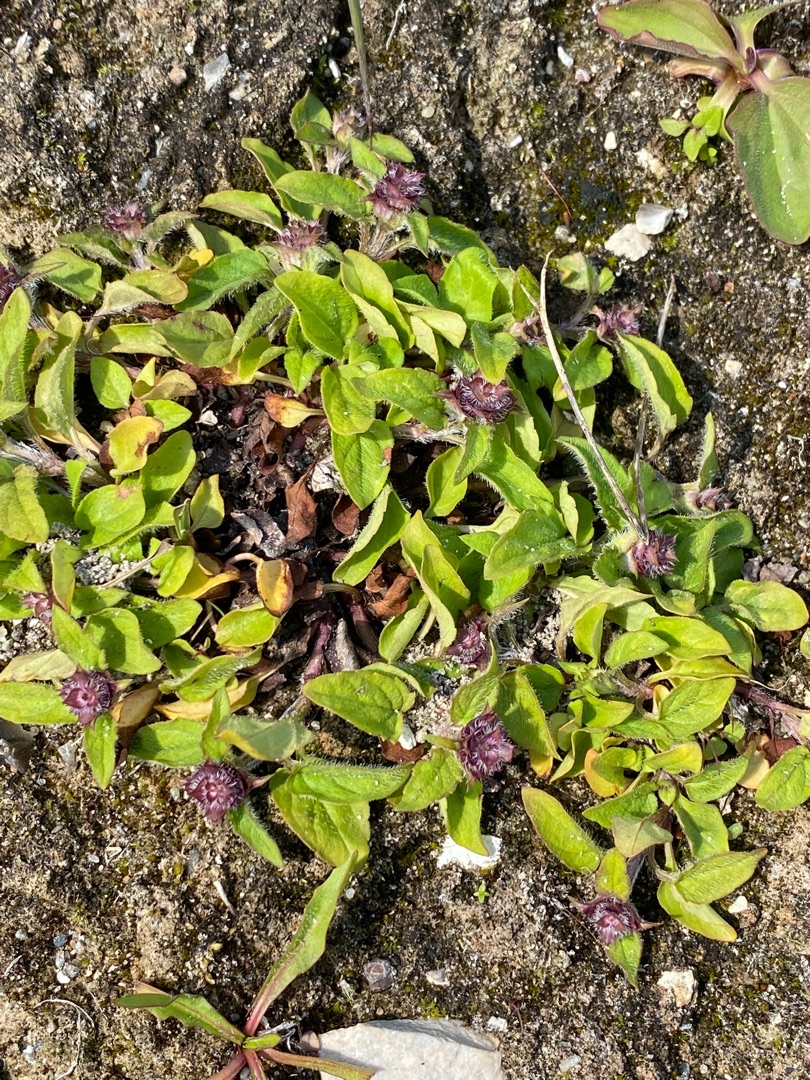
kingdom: Plantae
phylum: Tracheophyta
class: Magnoliopsida
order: Lamiales
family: Lamiaceae
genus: Prunella
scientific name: Prunella vulgaris
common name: Almindelig brunelle
